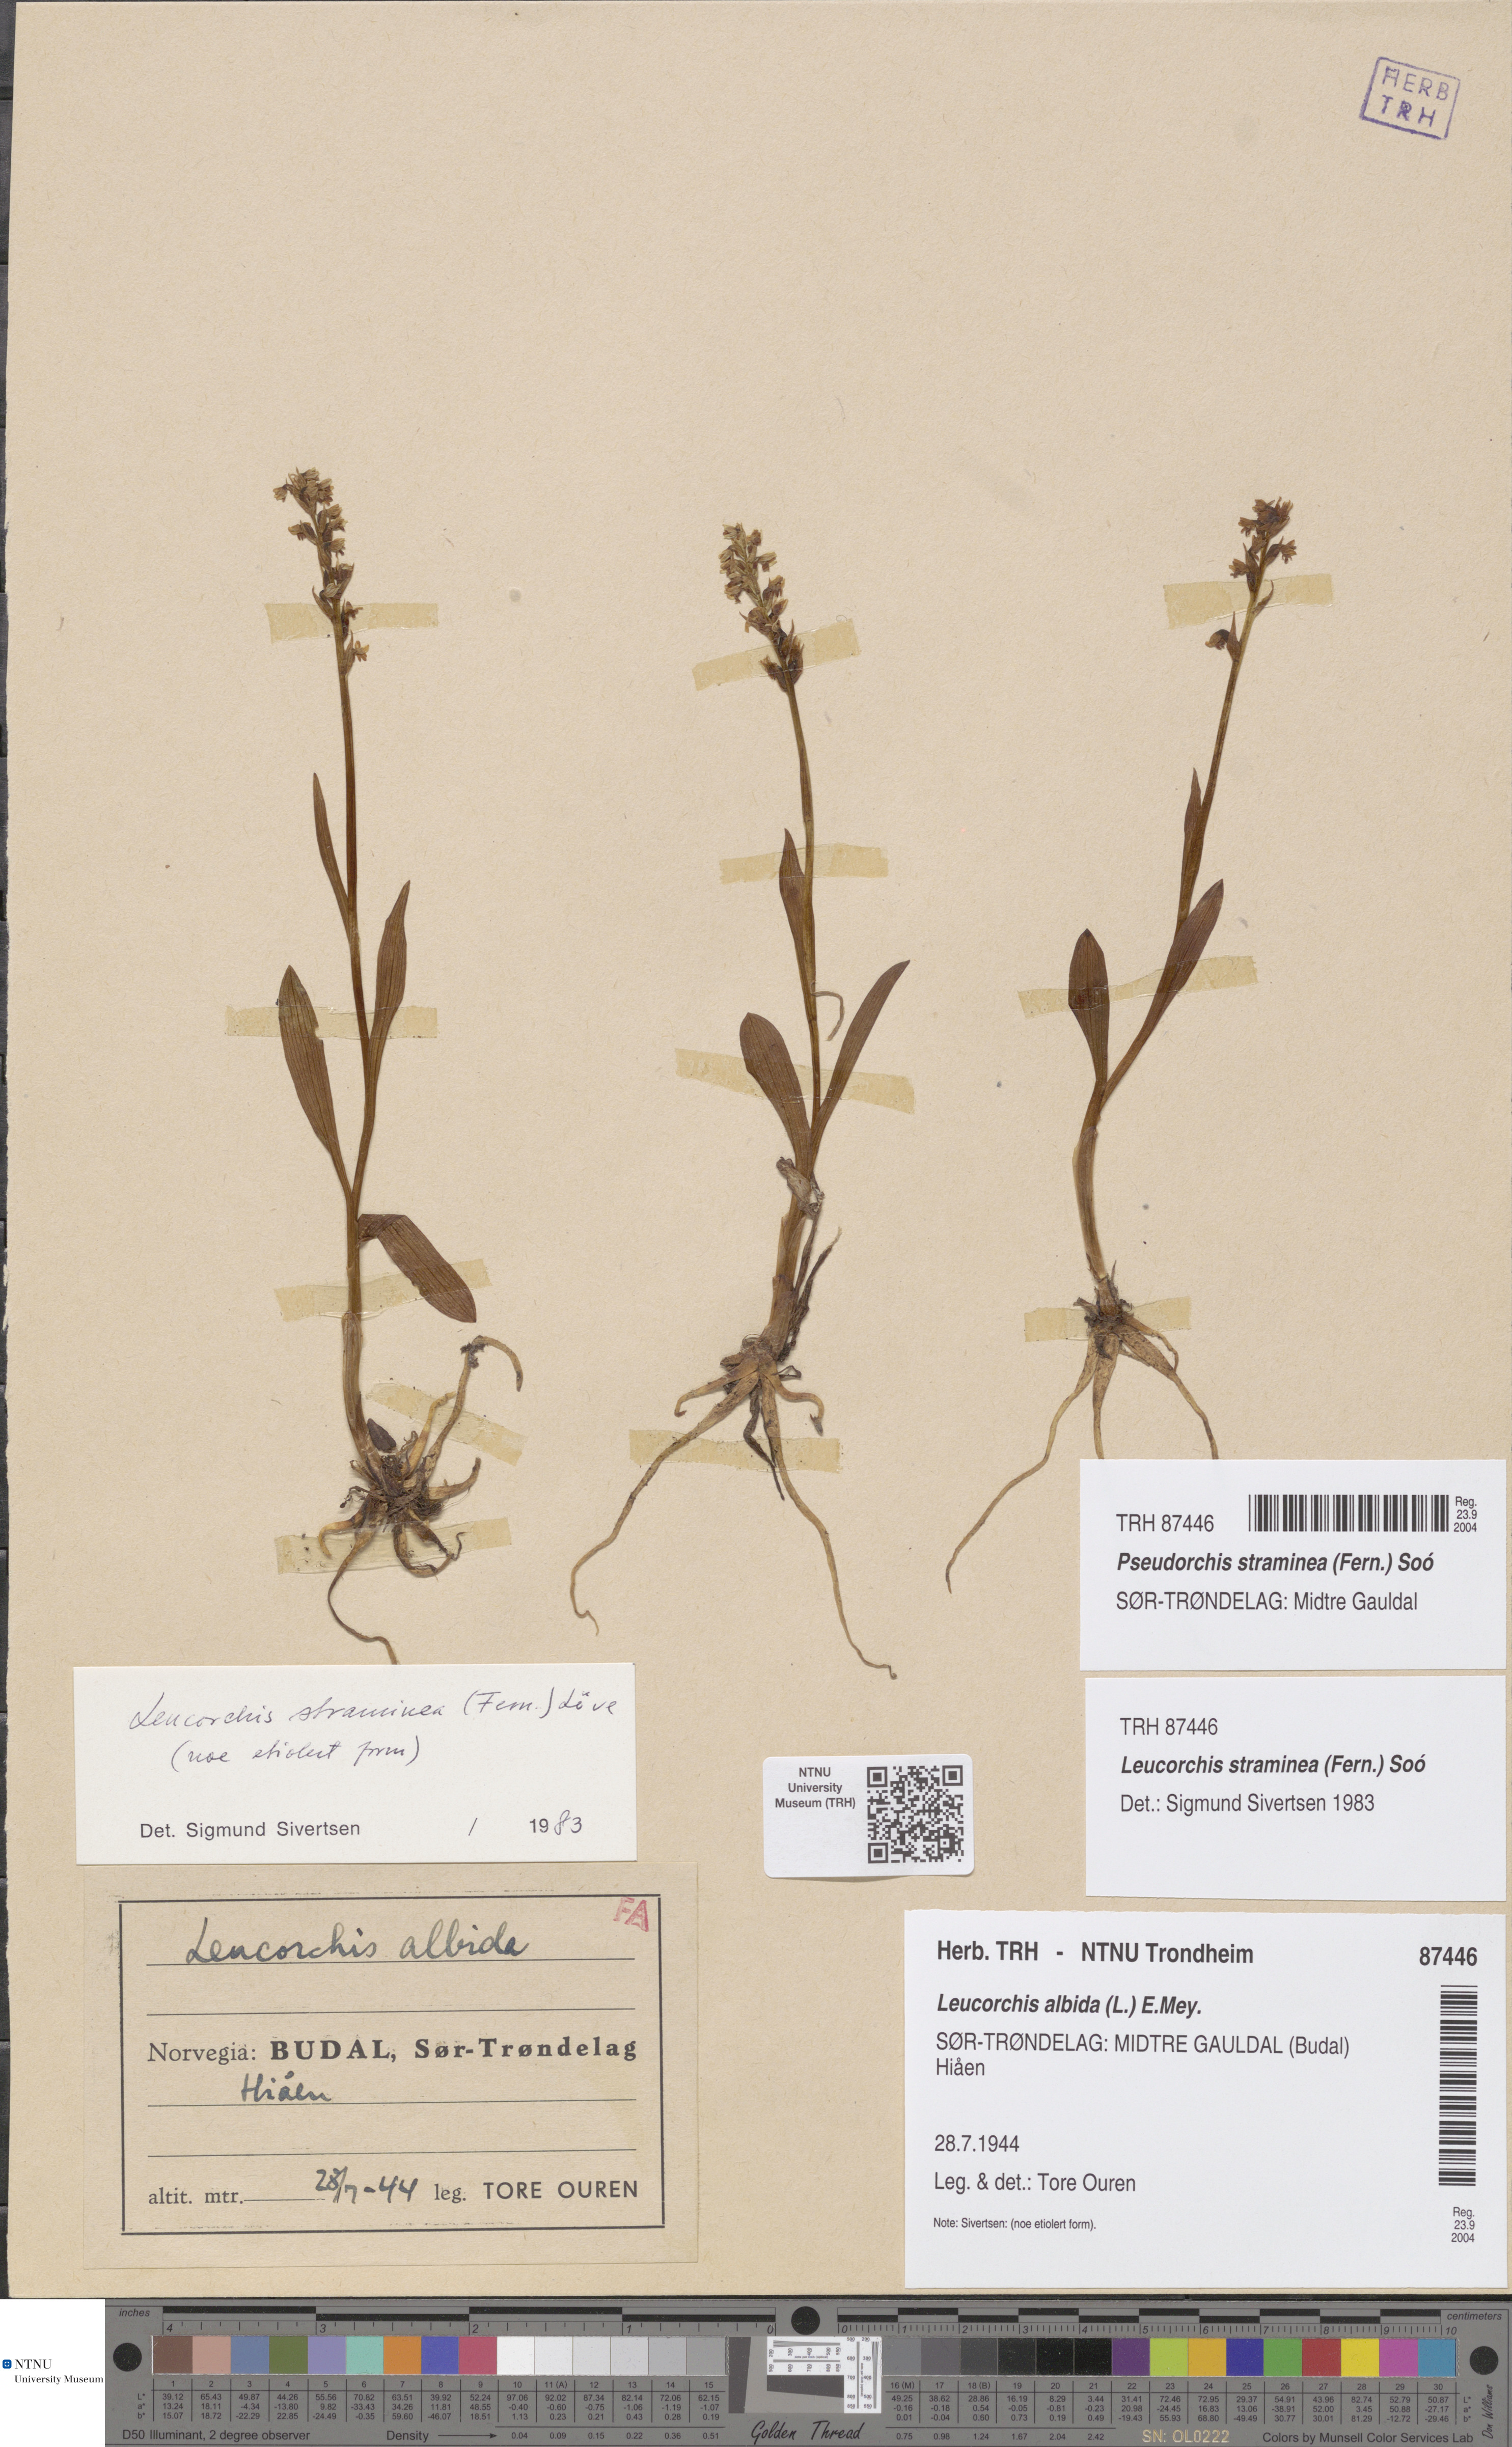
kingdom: Plantae
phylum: Tracheophyta
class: Liliopsida
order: Asparagales
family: Orchidaceae
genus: Pseudorchis
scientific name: Pseudorchis straminea
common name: Vanilla-scented bog orchid
